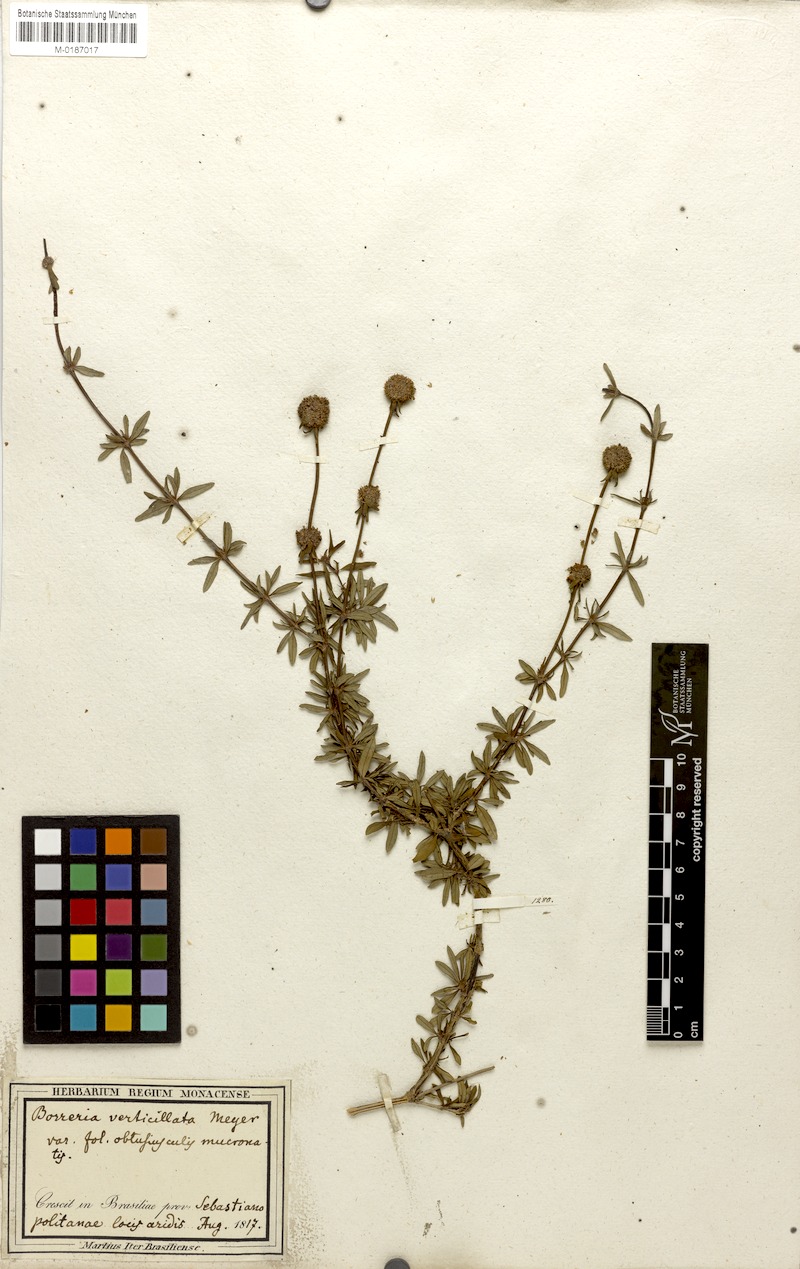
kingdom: Plantae
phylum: Tracheophyta
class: Magnoliopsida
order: Gentianales
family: Rubiaceae
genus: Spermacoce
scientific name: Spermacoce verticillata
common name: Shrubby false buttonweed
